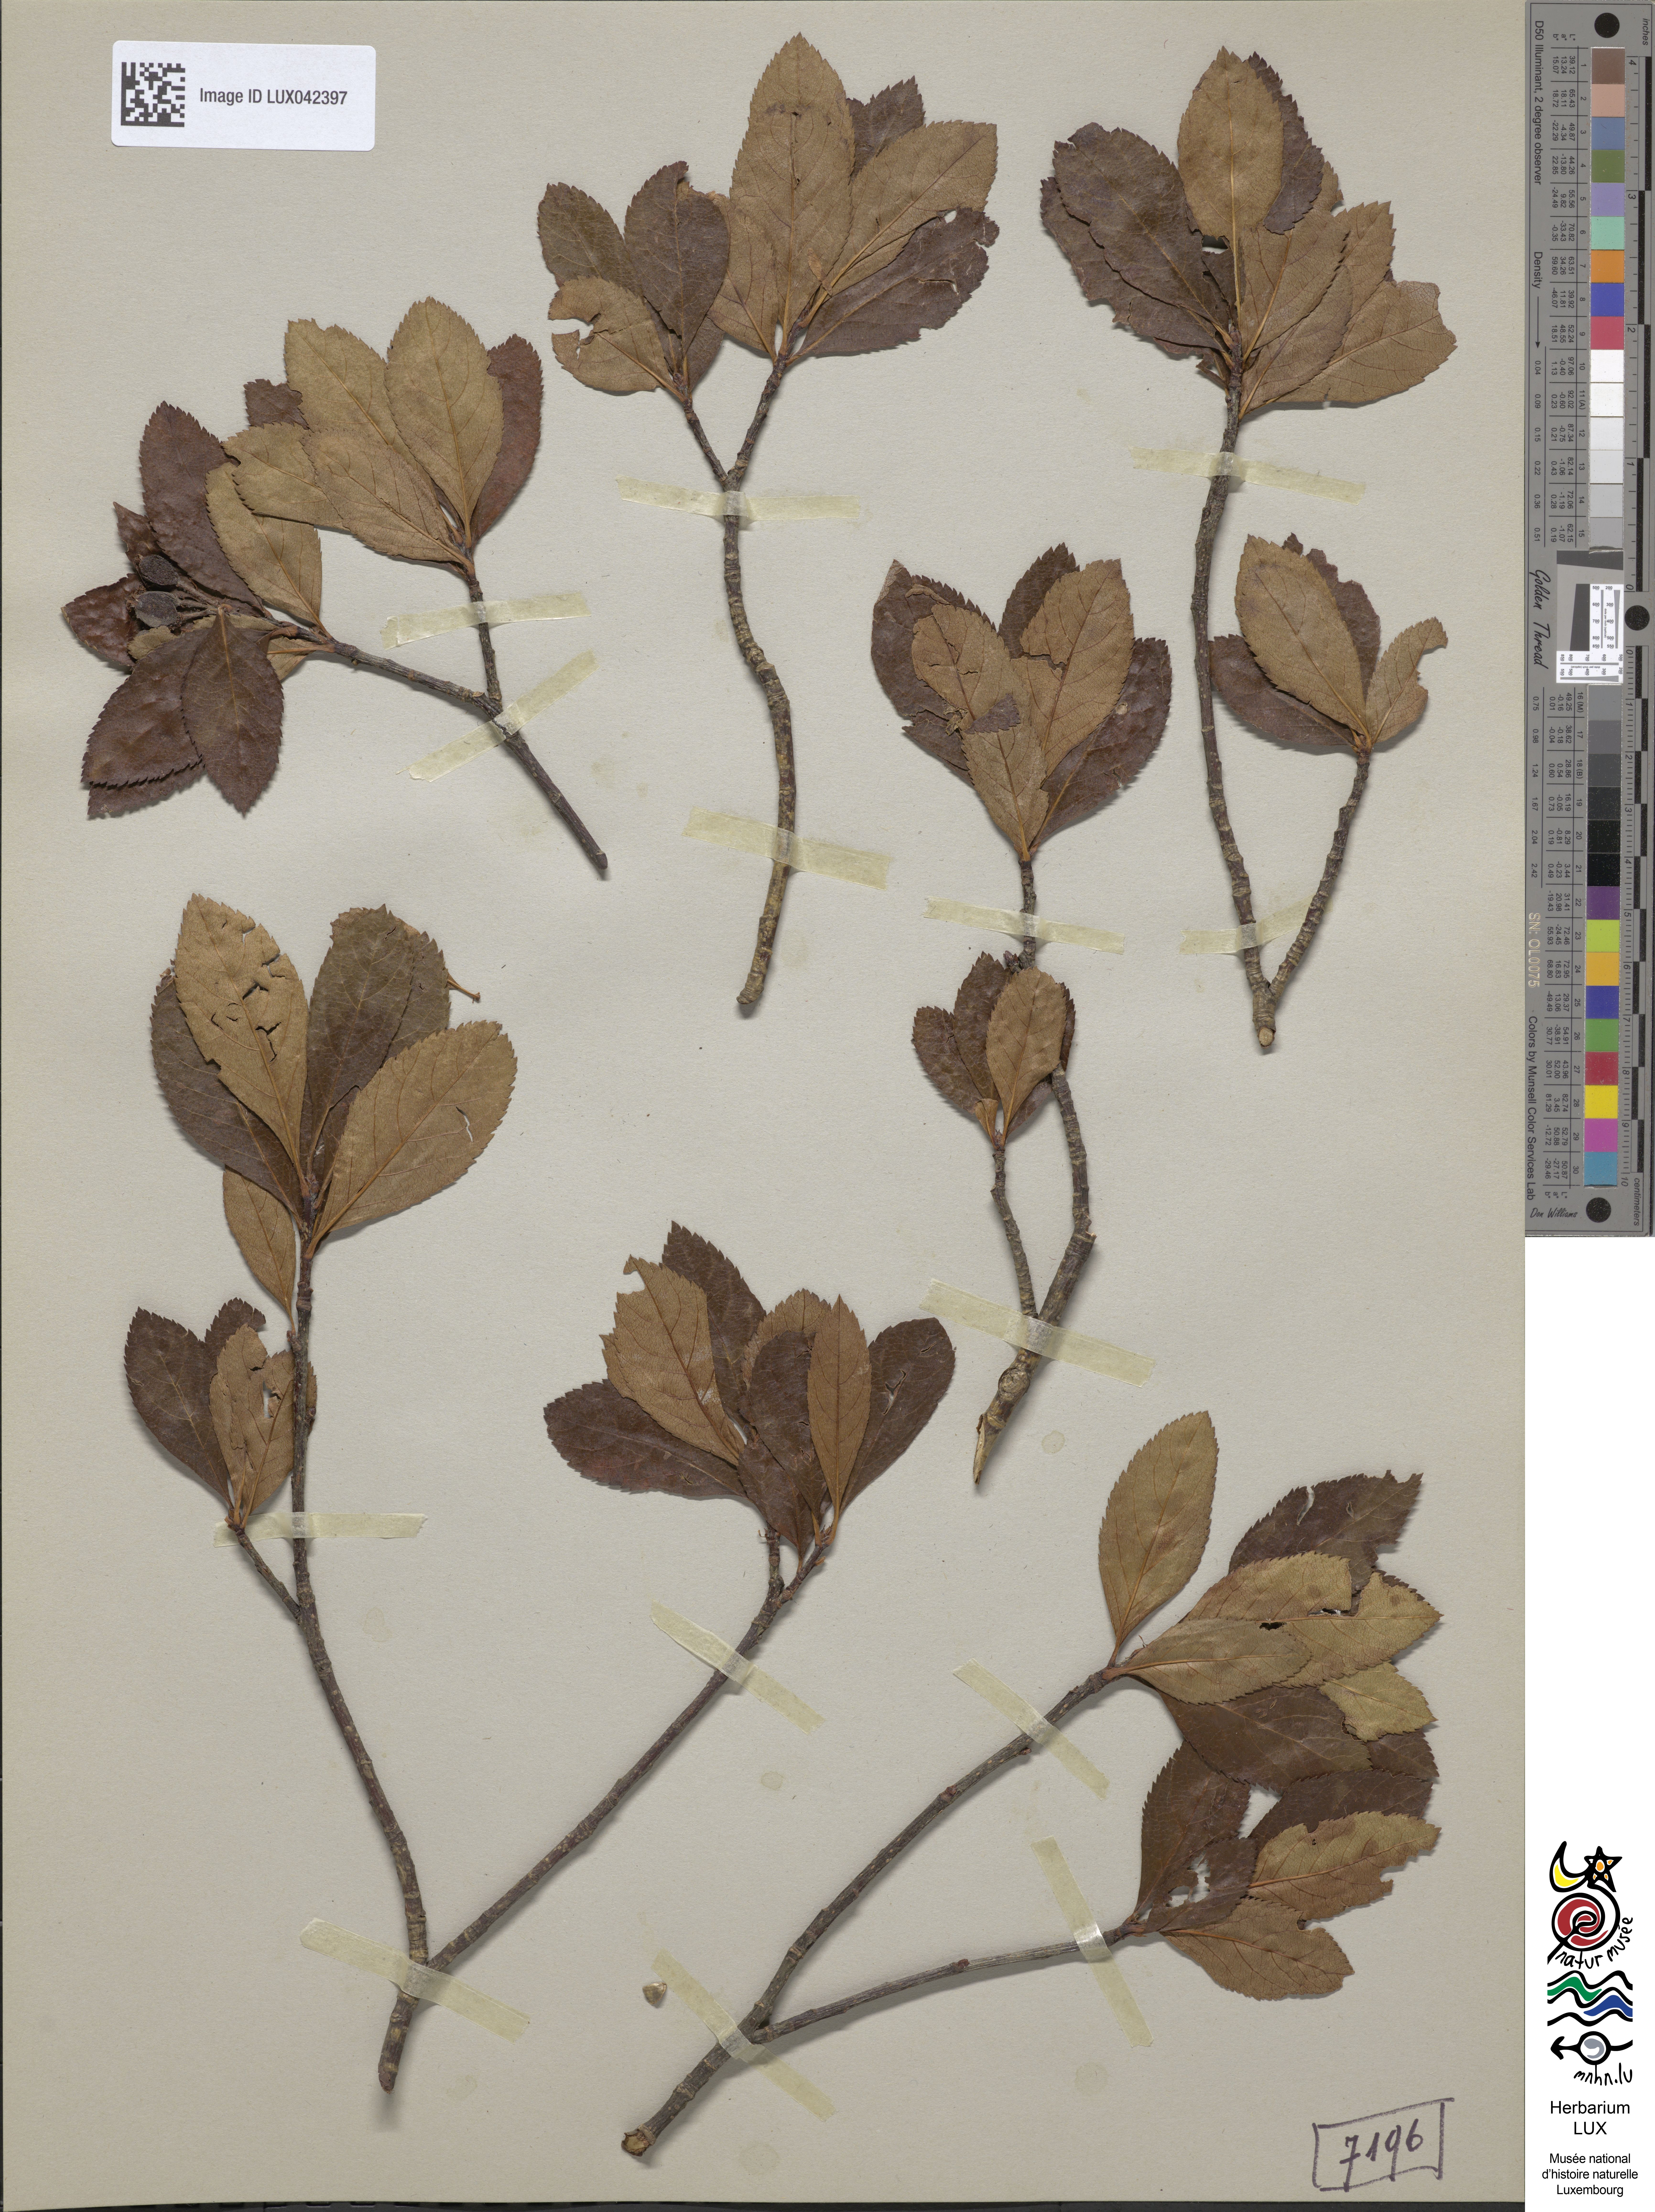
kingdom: Plantae
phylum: Tracheophyta
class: Magnoliopsida
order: Rosales
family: Rosaceae
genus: Chamaemespilus
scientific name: Chamaemespilus alpina
